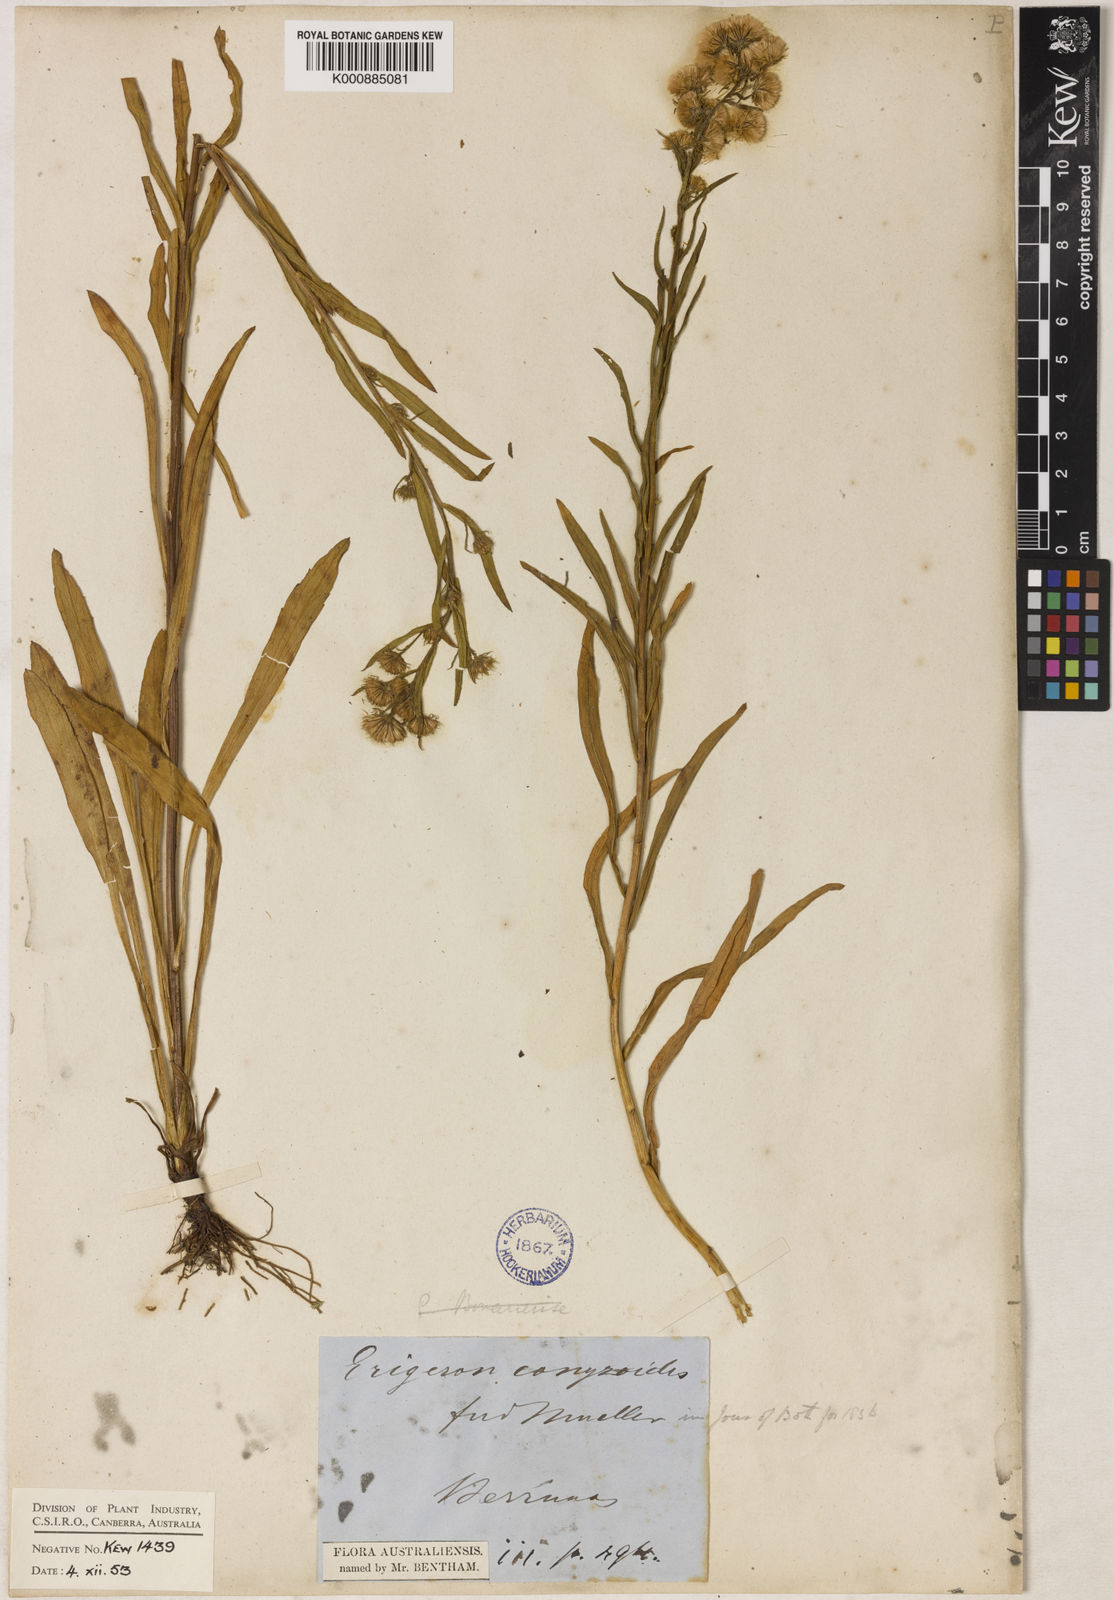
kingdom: Plantae
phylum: Tracheophyta
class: Magnoliopsida
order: Asterales
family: Asteraceae
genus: Erigeron
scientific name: Erigeron conyzoides
